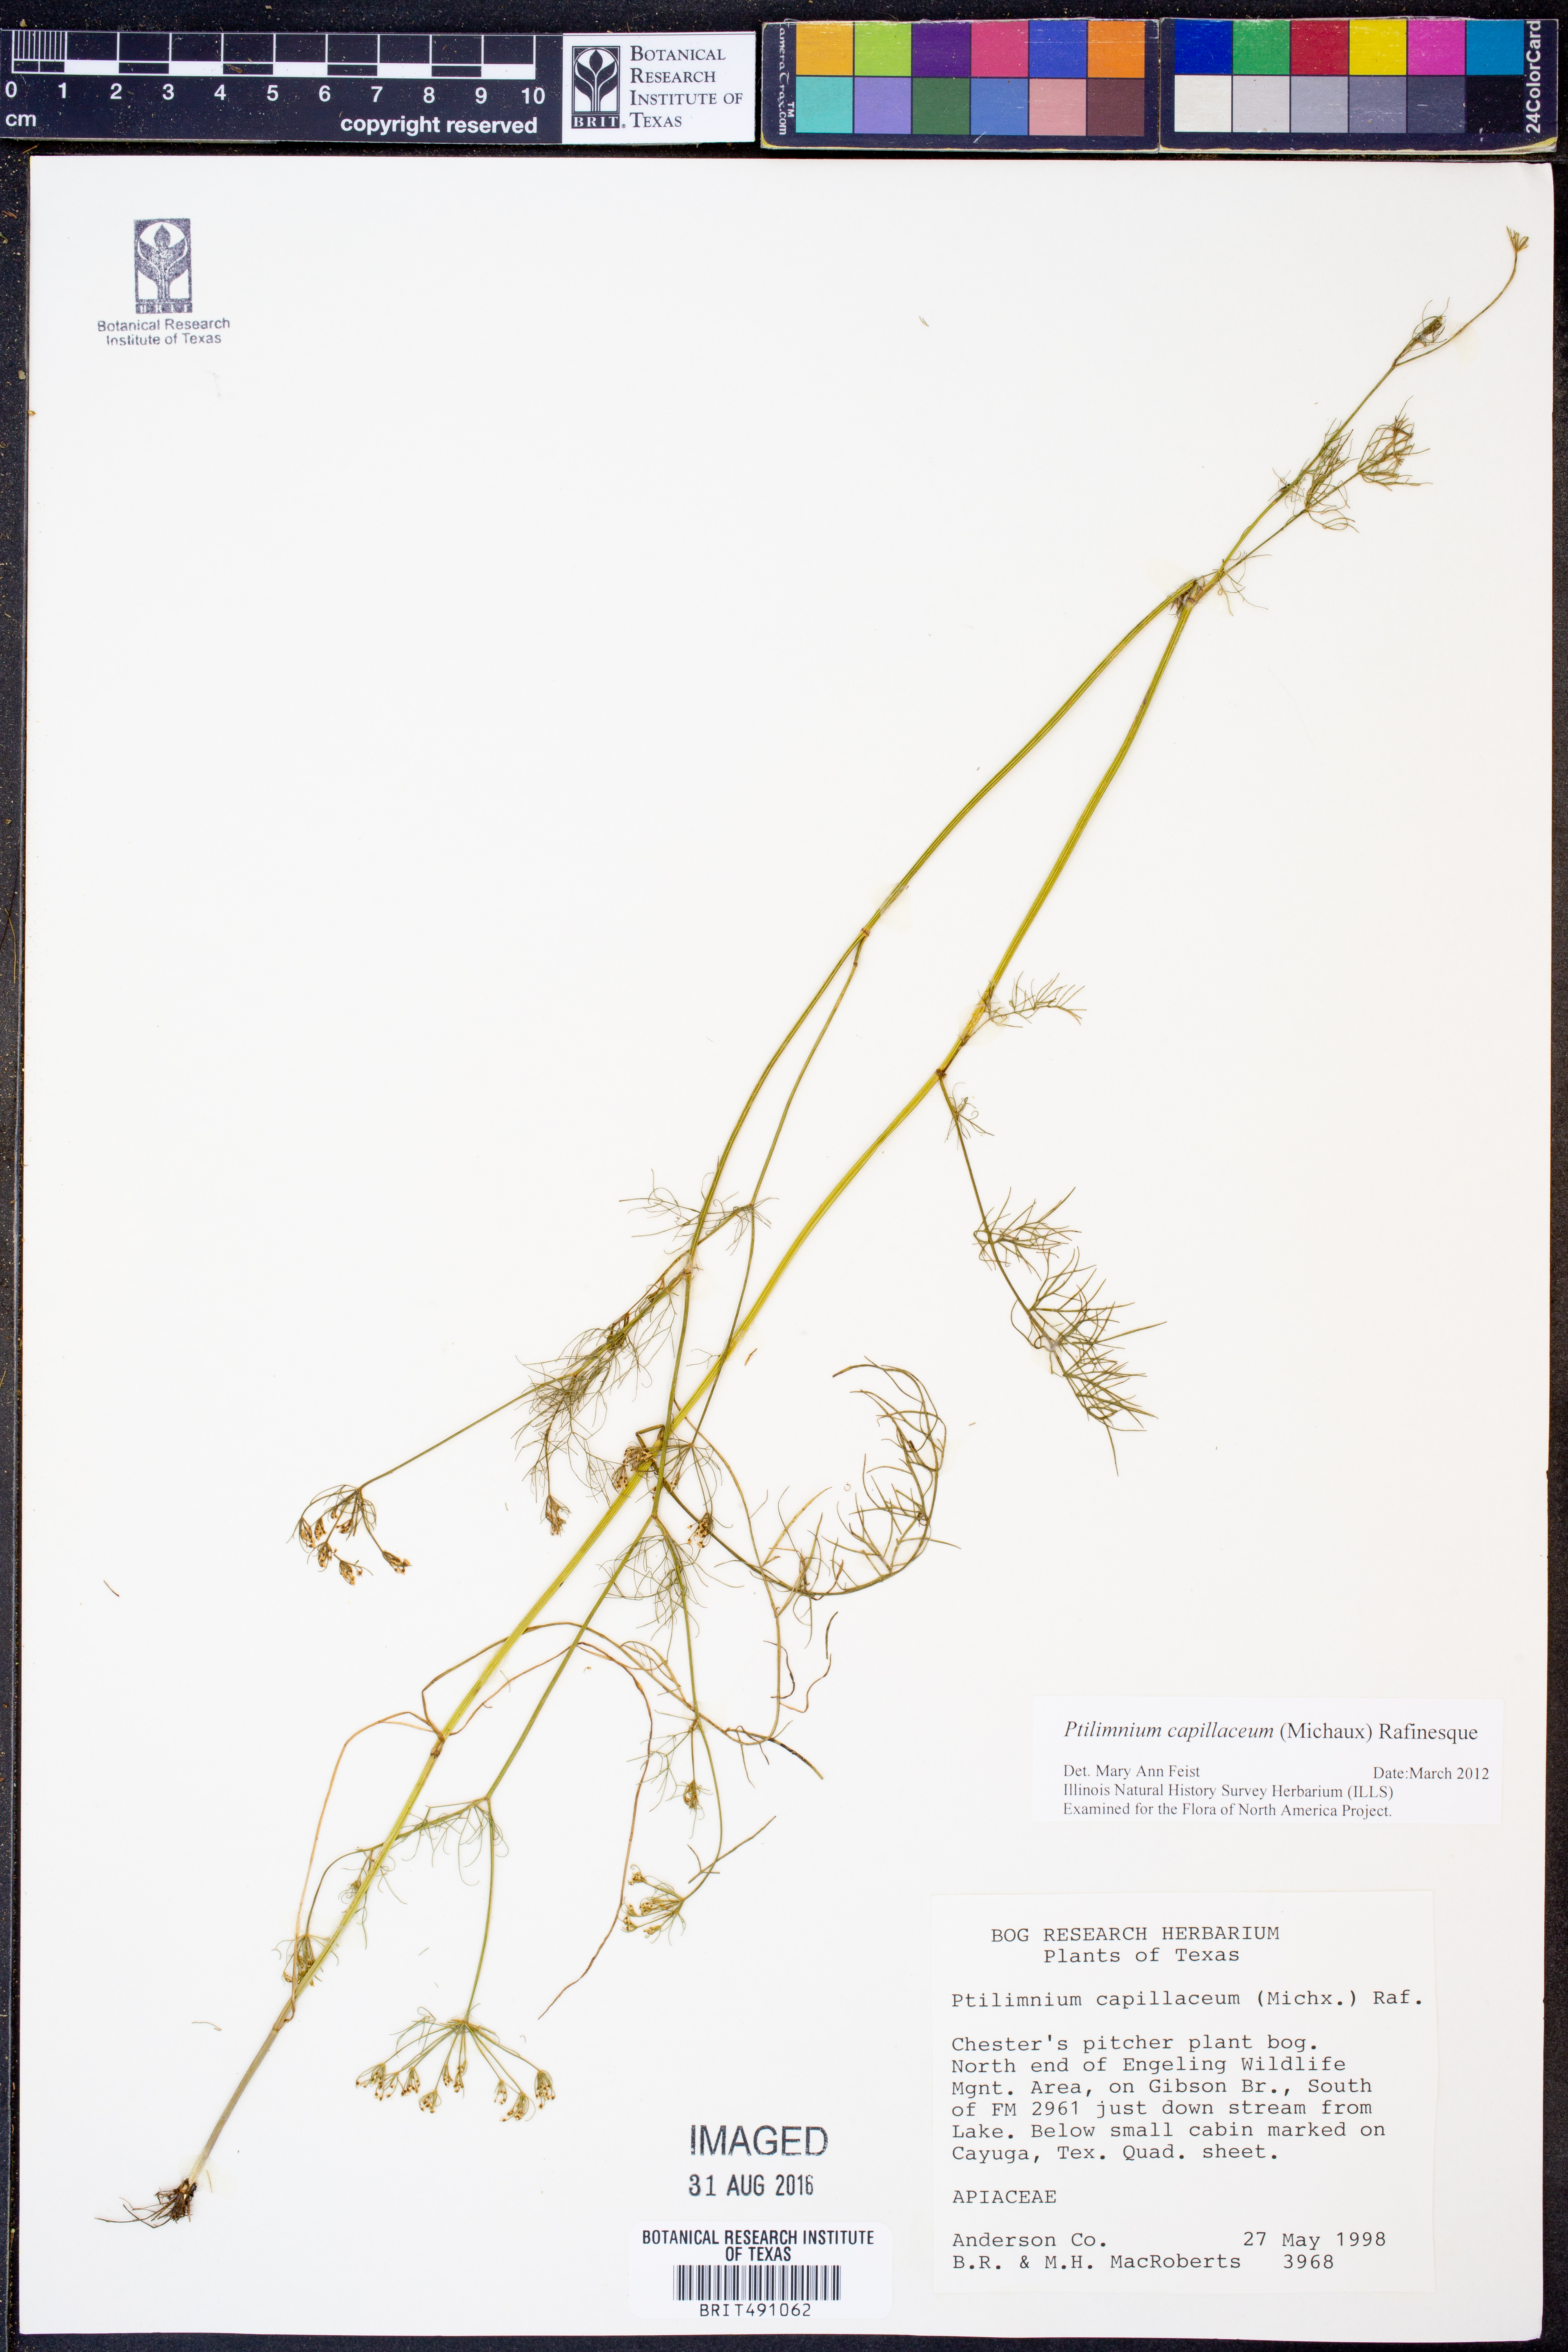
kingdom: Plantae
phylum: Tracheophyta
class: Magnoliopsida
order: Apiales
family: Apiaceae
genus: Ptilimnium
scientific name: Ptilimnium capillaceum
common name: Herbwilliam
